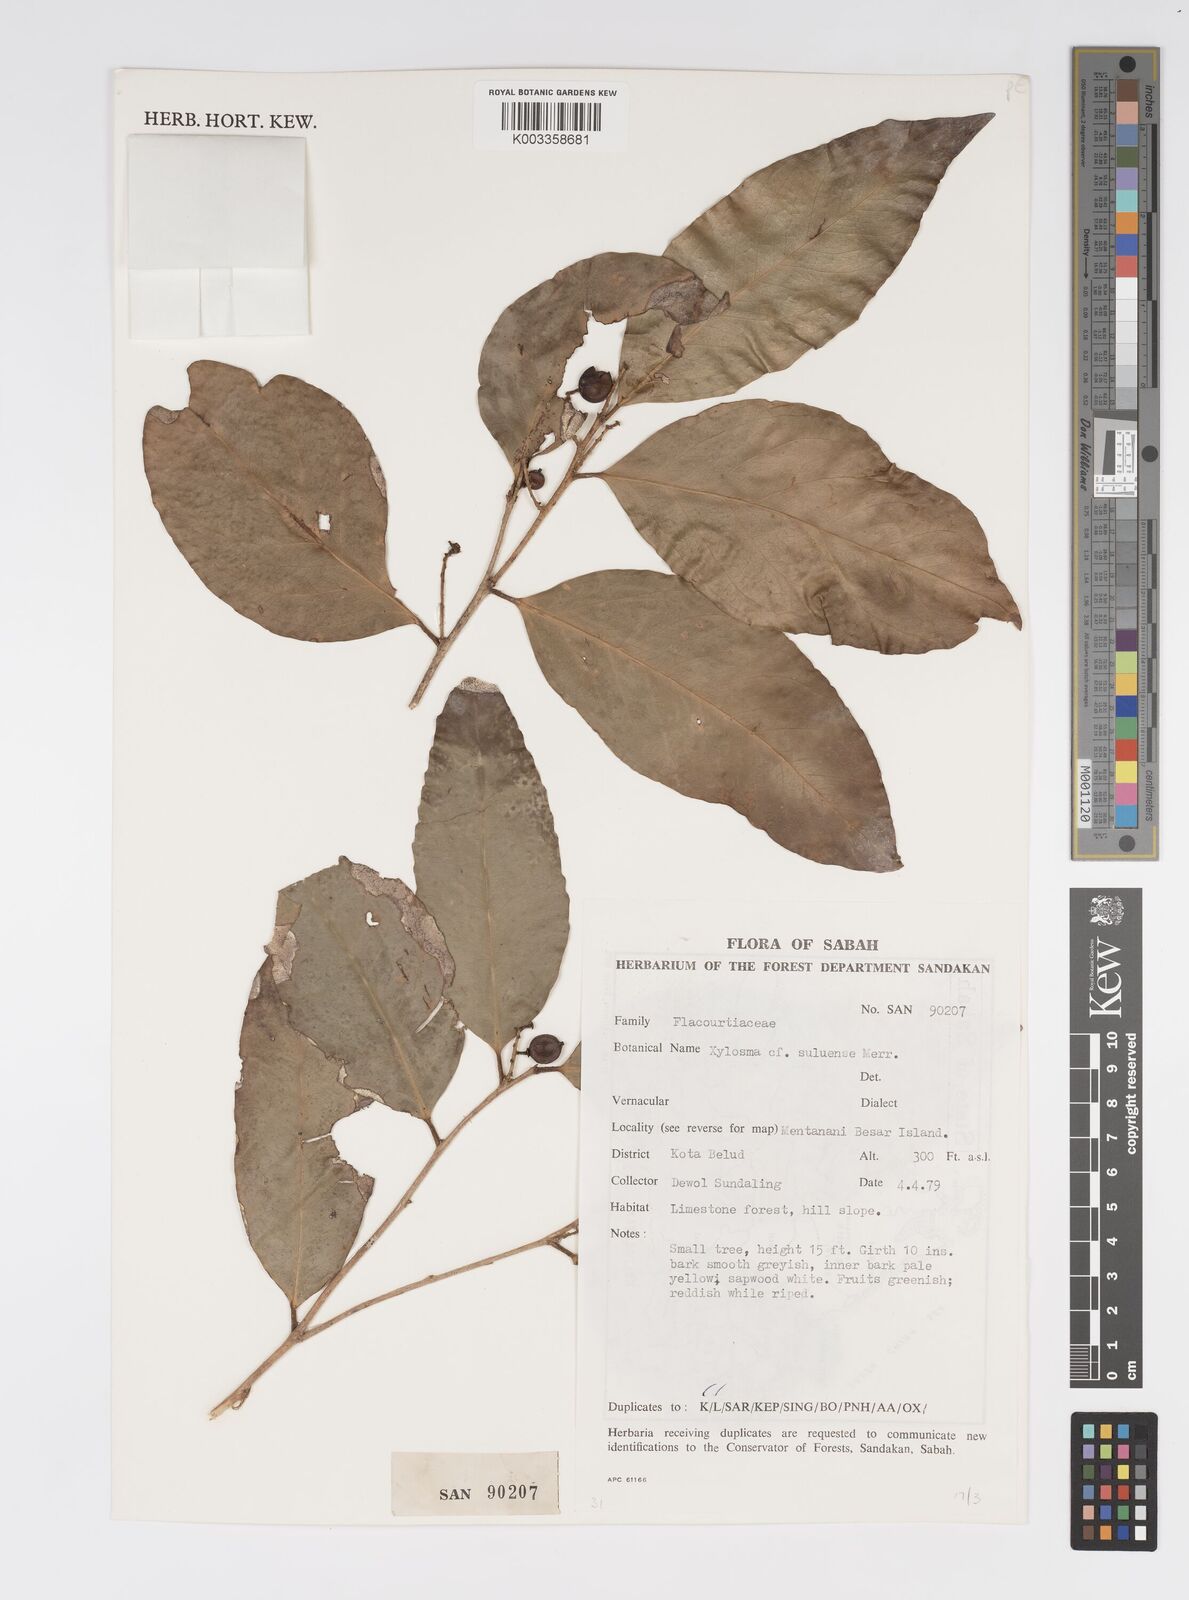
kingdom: Plantae
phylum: Tracheophyta
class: Magnoliopsida
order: Malpighiales
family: Salicaceae
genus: Xylosma
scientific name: Xylosma
